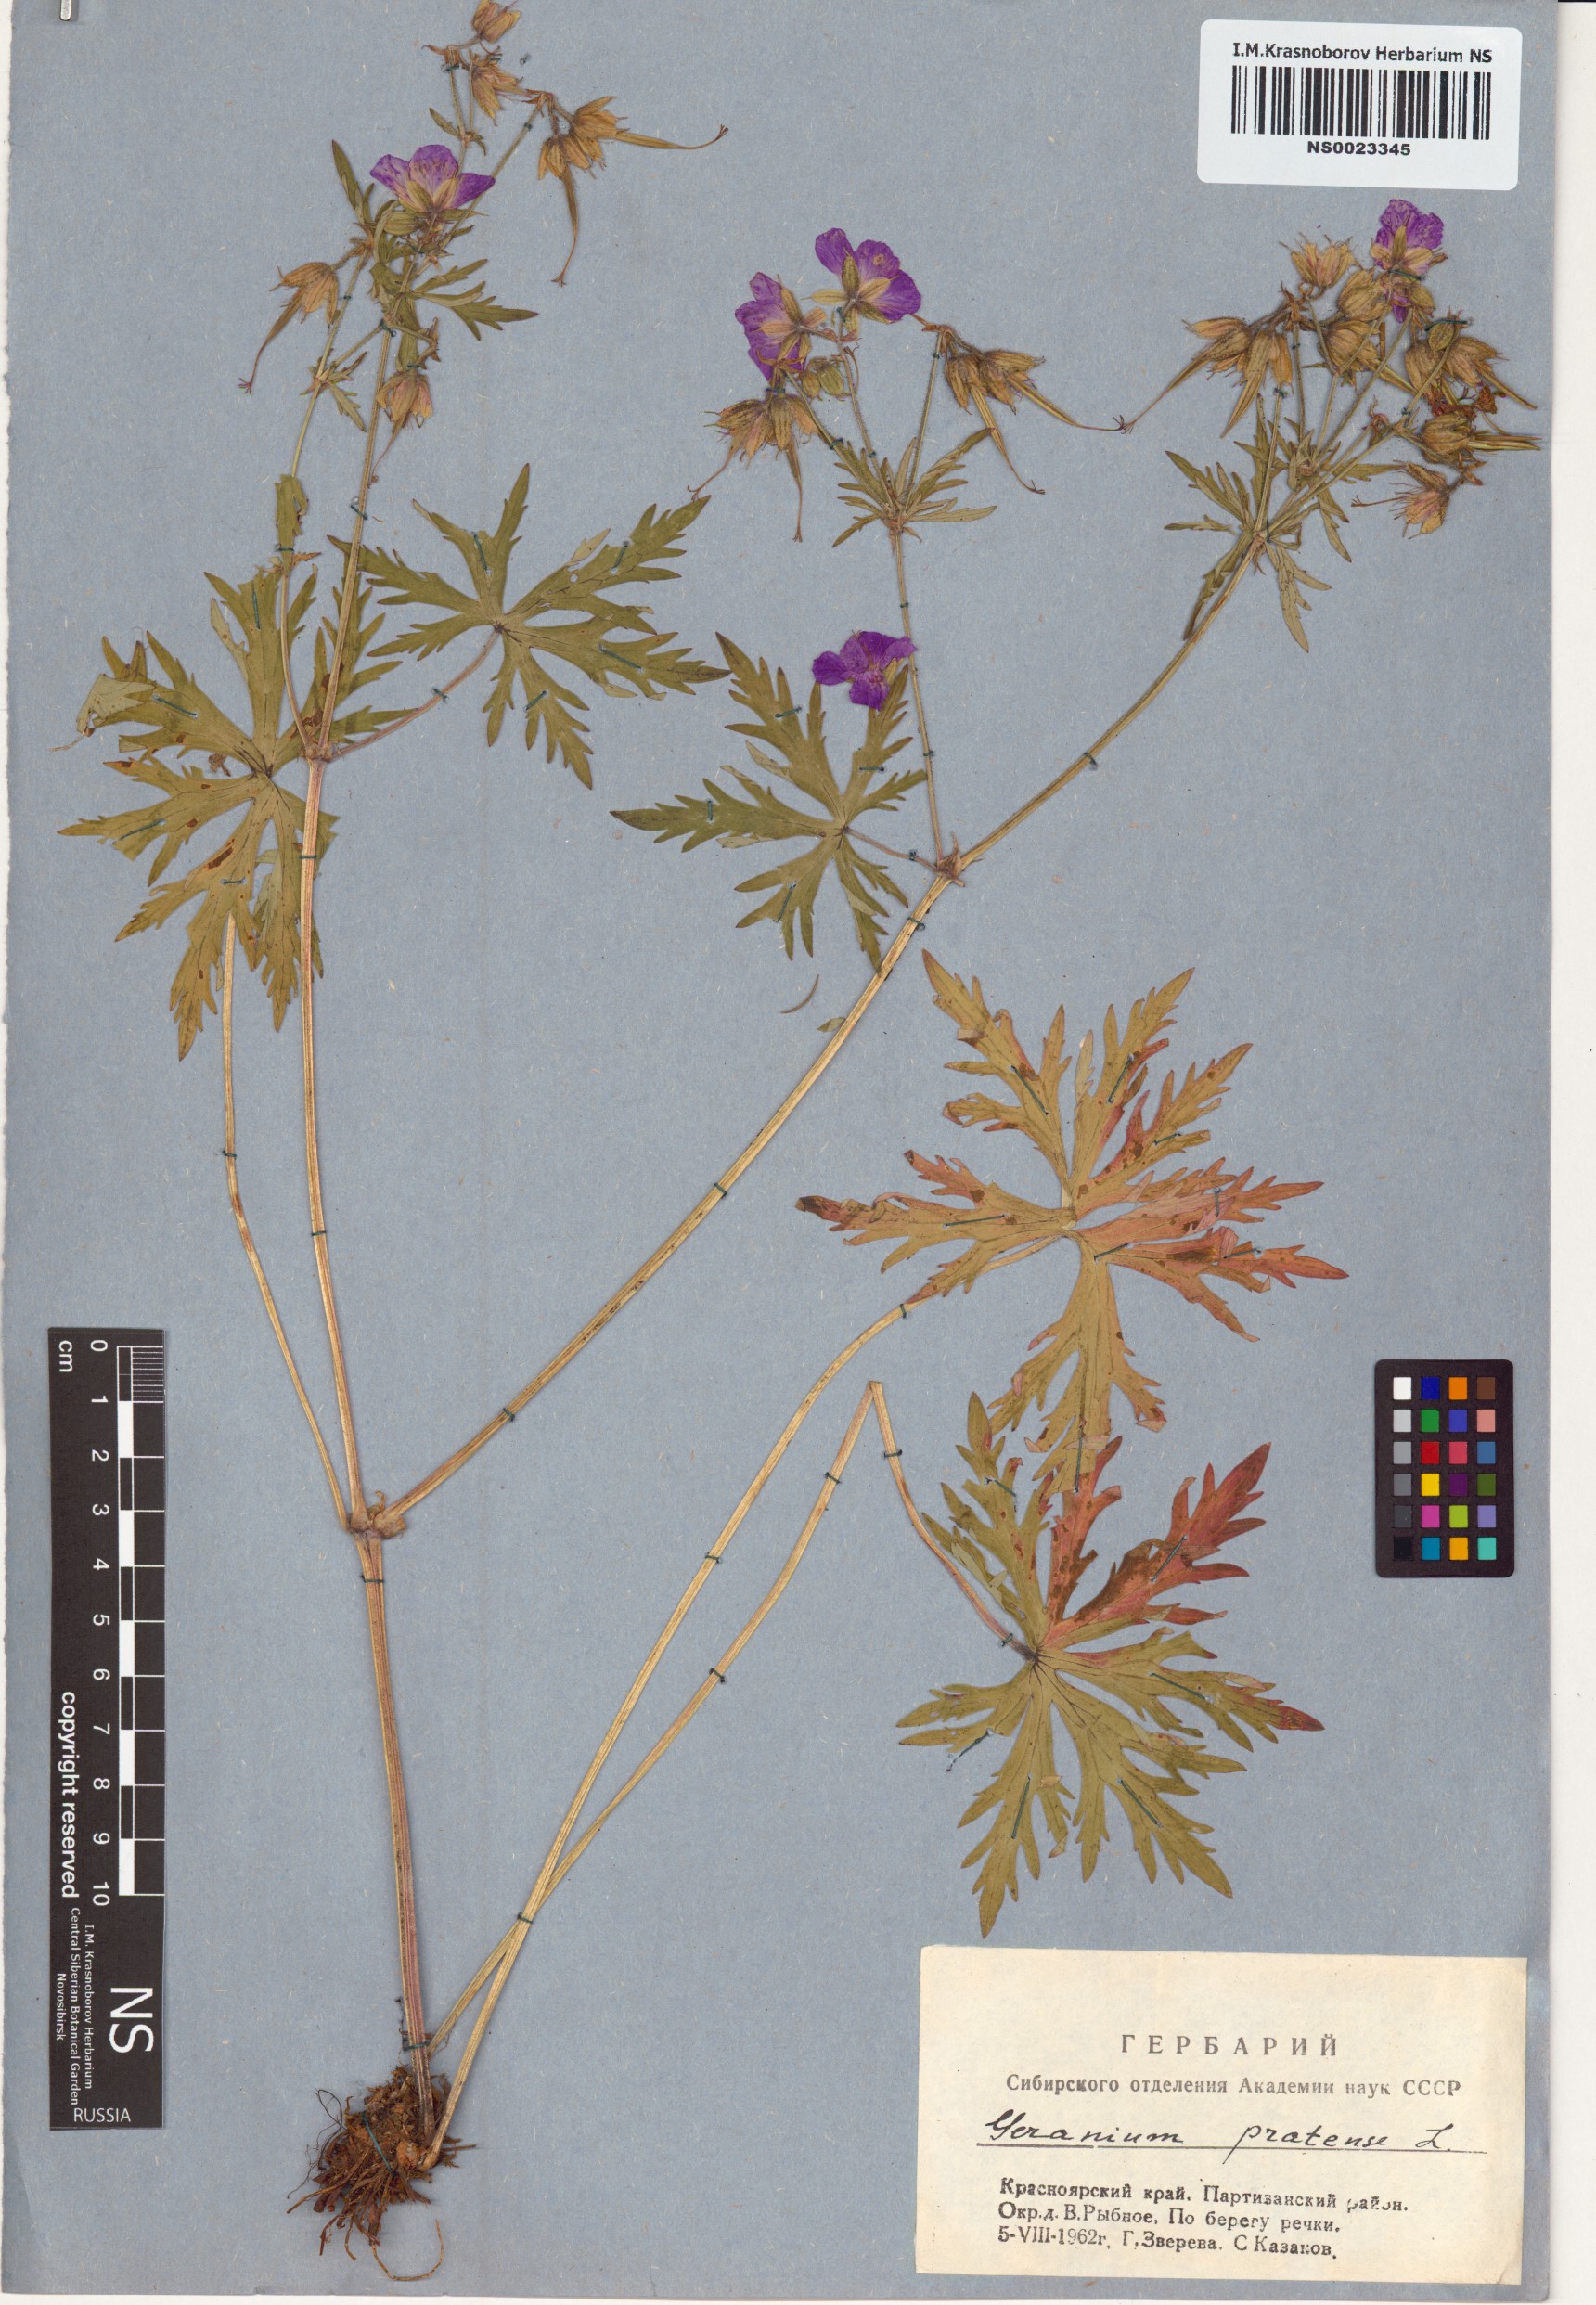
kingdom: Plantae
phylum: Tracheophyta
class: Magnoliopsida
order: Geraniales
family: Geraniaceae
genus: Geranium
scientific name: Geranium pratense
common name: Meadow crane's-bill
